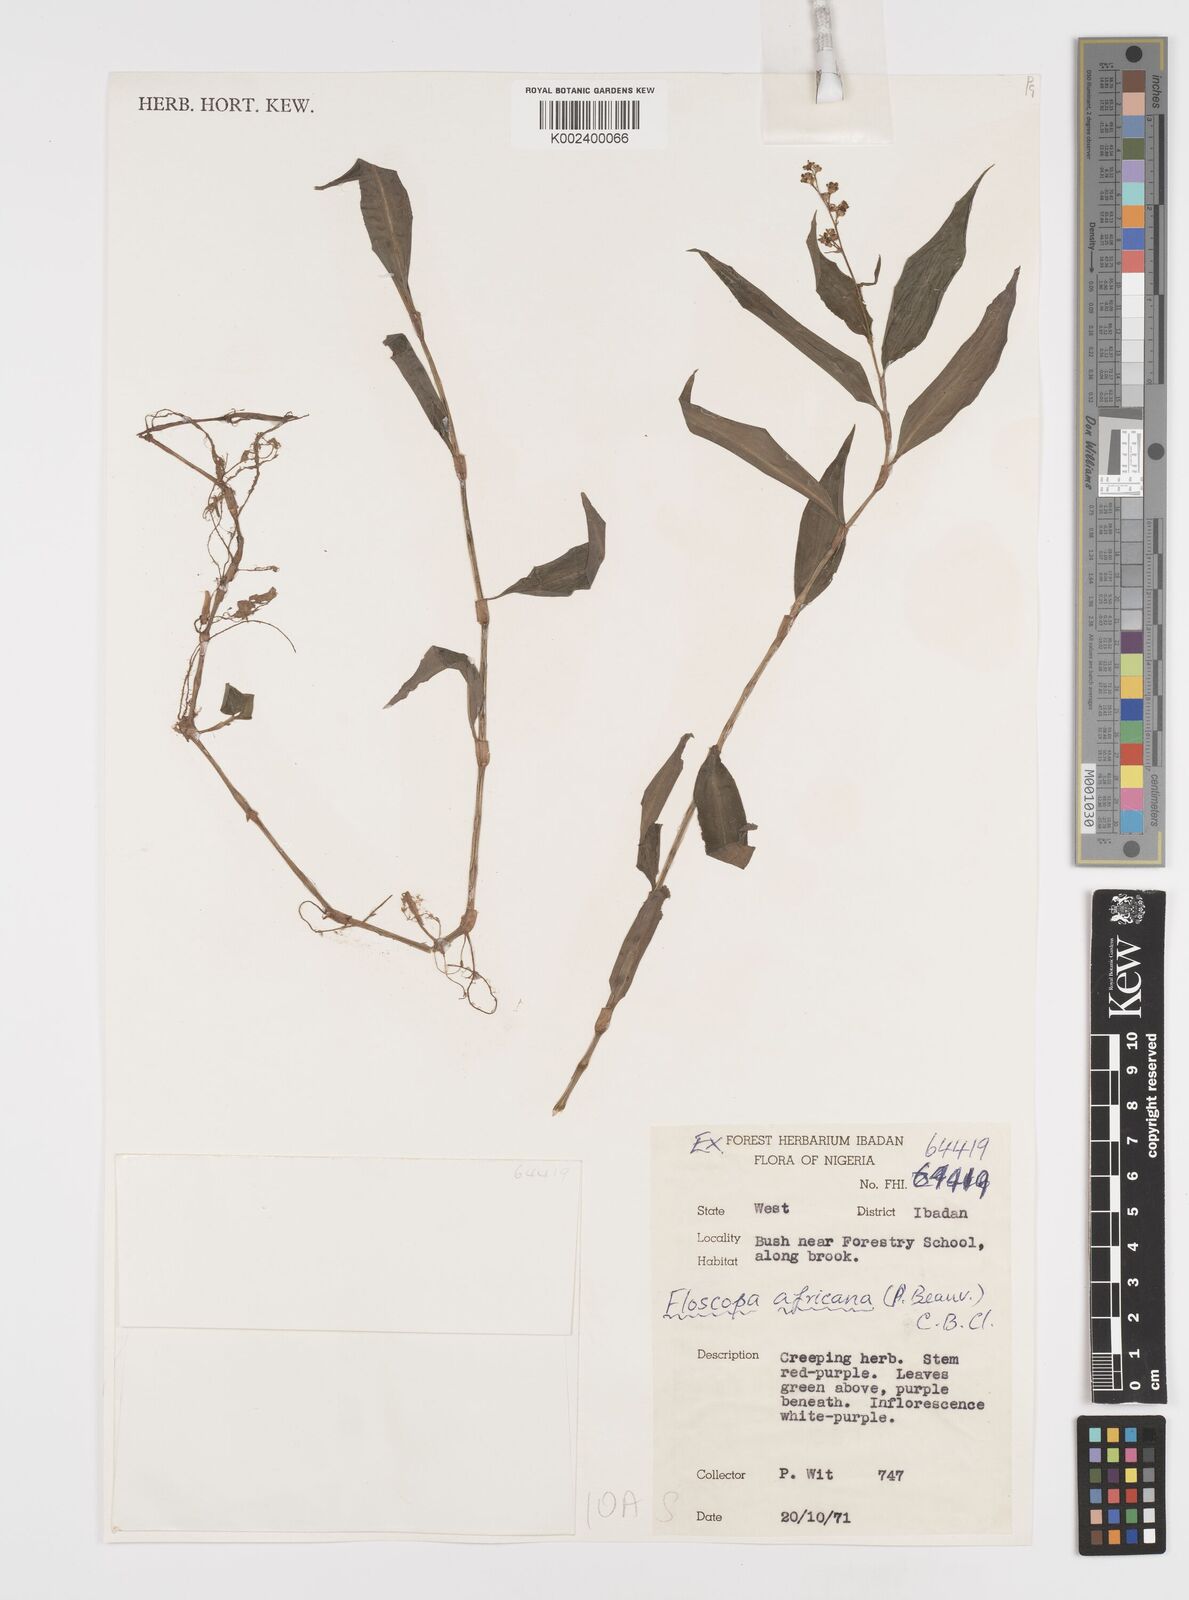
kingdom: Plantae
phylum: Tracheophyta
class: Liliopsida
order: Commelinales
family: Commelinaceae
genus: Floscopa
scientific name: Floscopa africana
